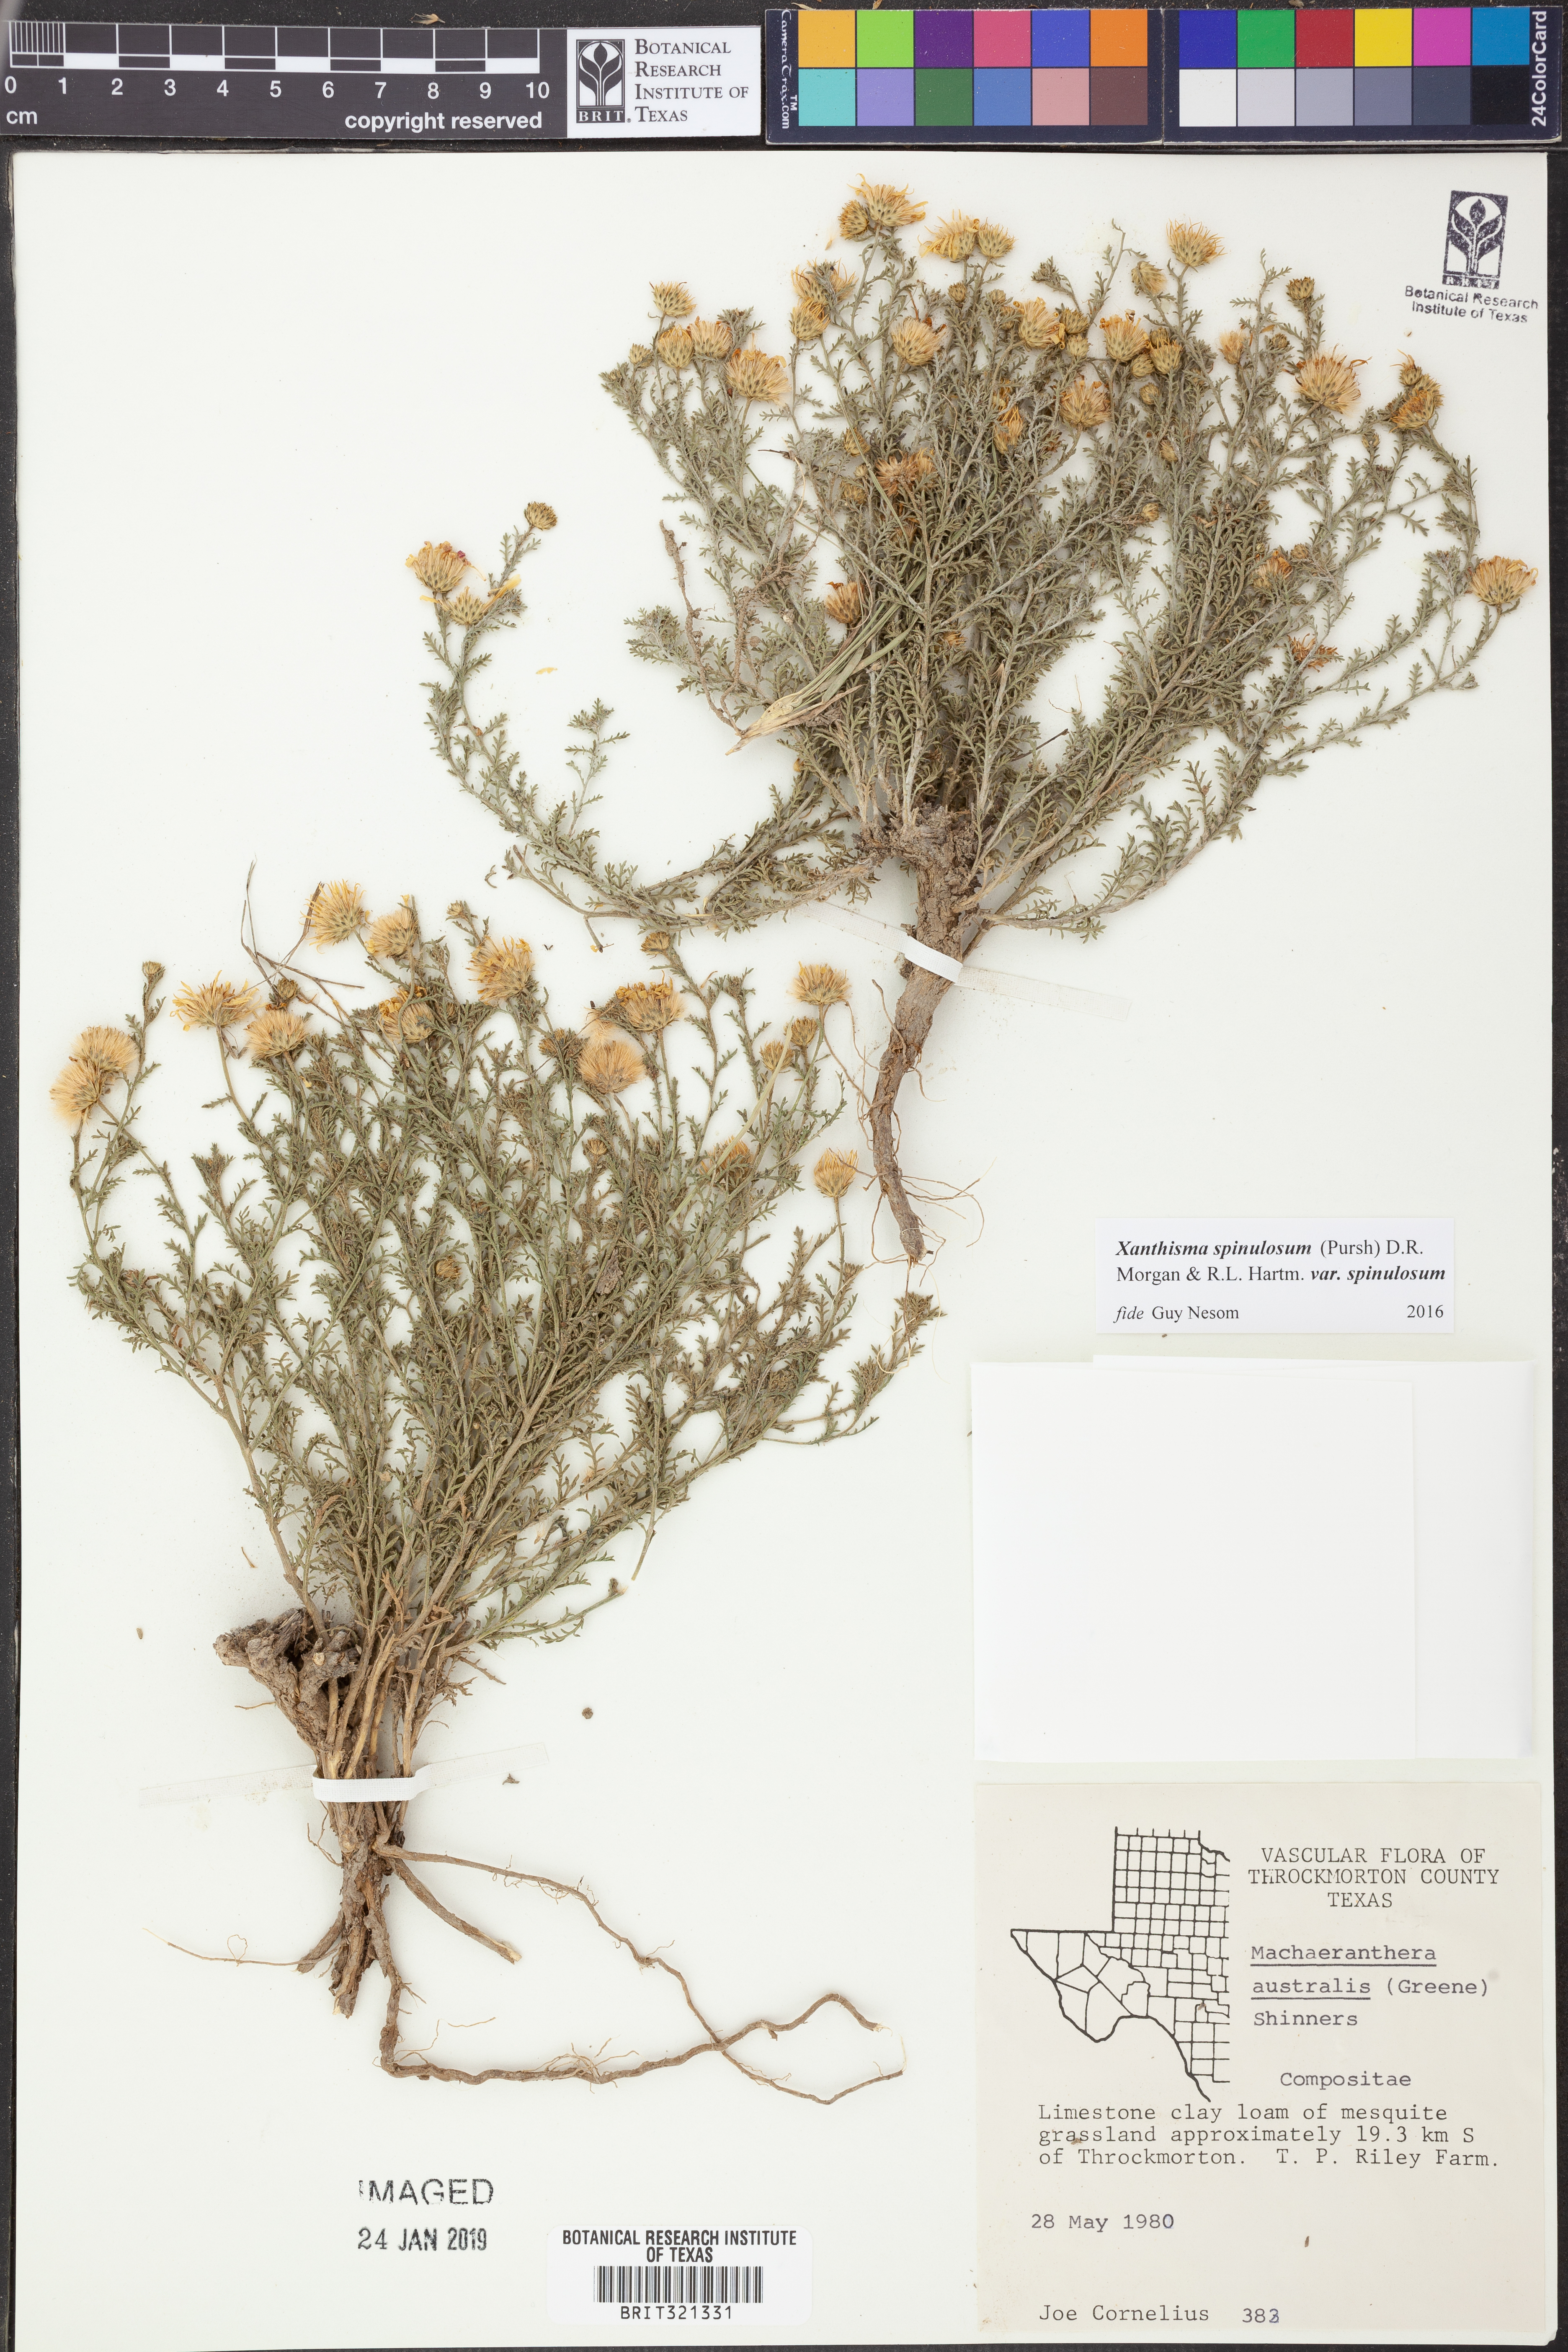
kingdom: Plantae
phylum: Tracheophyta
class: Magnoliopsida
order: Asterales
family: Asteraceae
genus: Xanthisma
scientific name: Xanthisma spinulosum
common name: Spiny goldenweed
